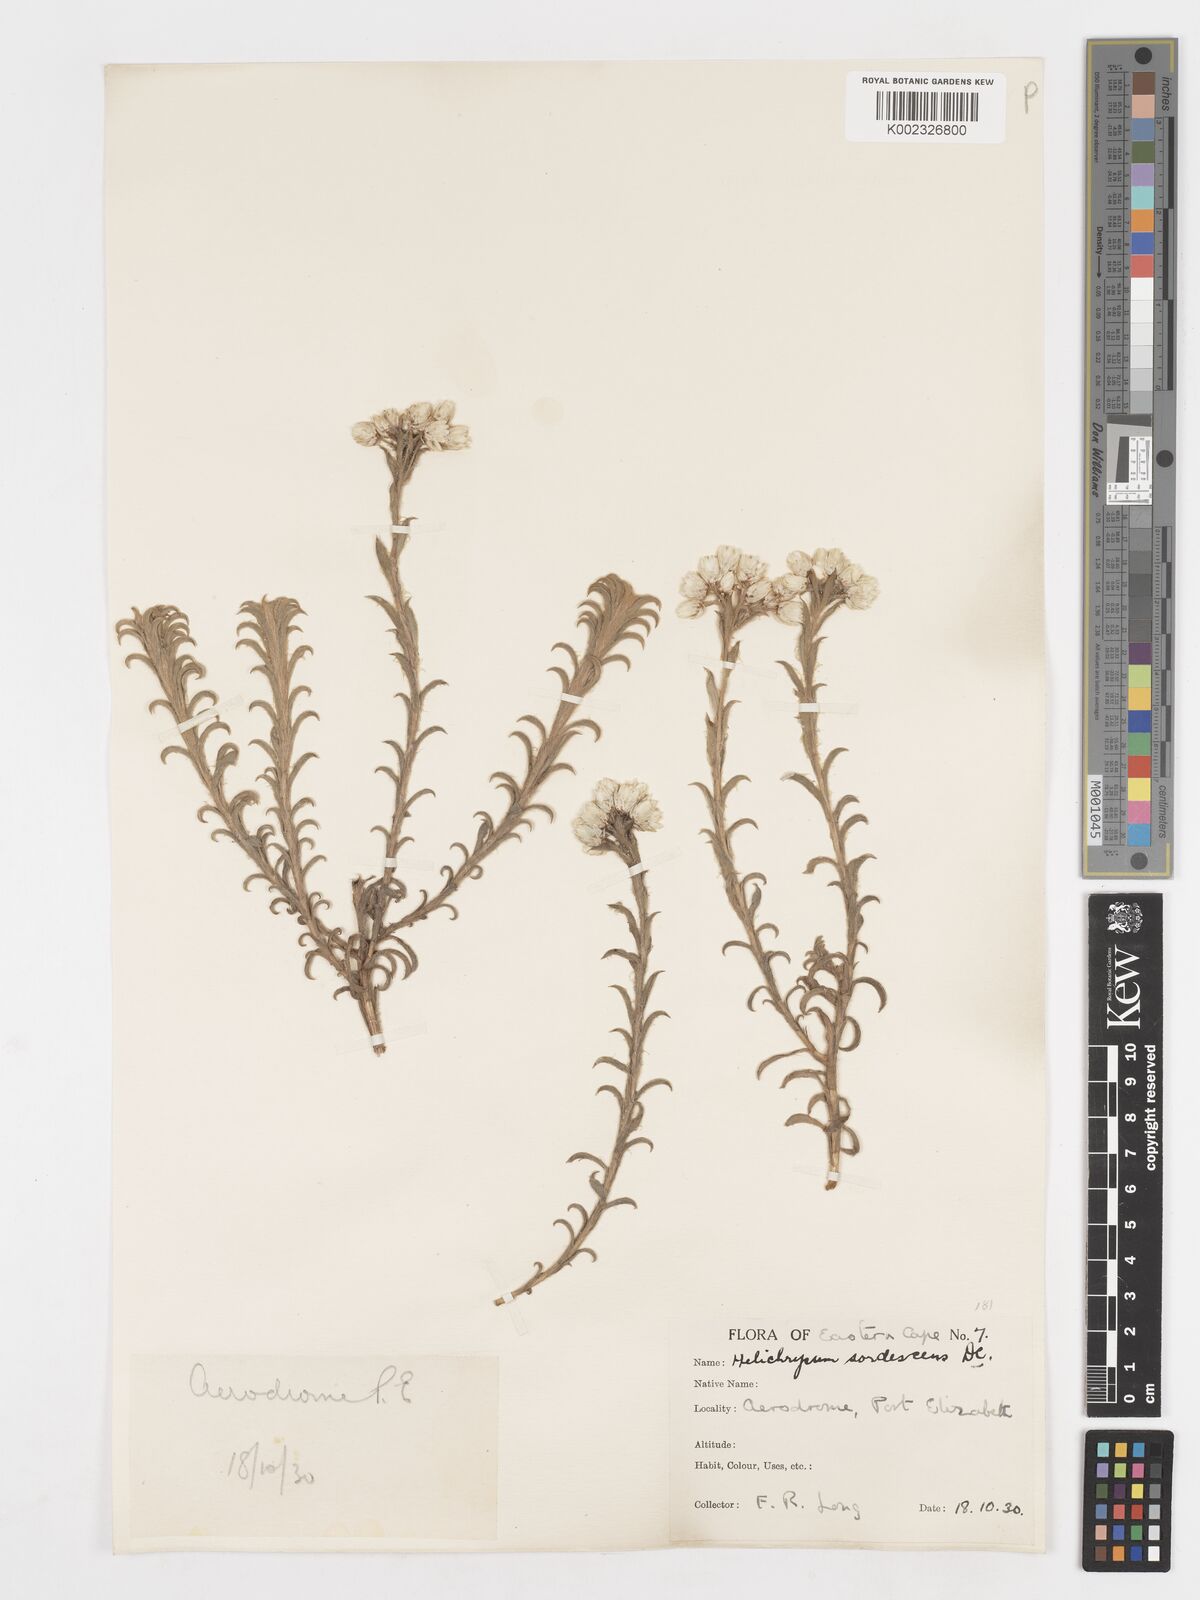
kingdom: Plantae
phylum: Tracheophyta
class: Magnoliopsida
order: Asterales
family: Asteraceae
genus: Achyranthemum
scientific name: Achyranthemum sordescens
